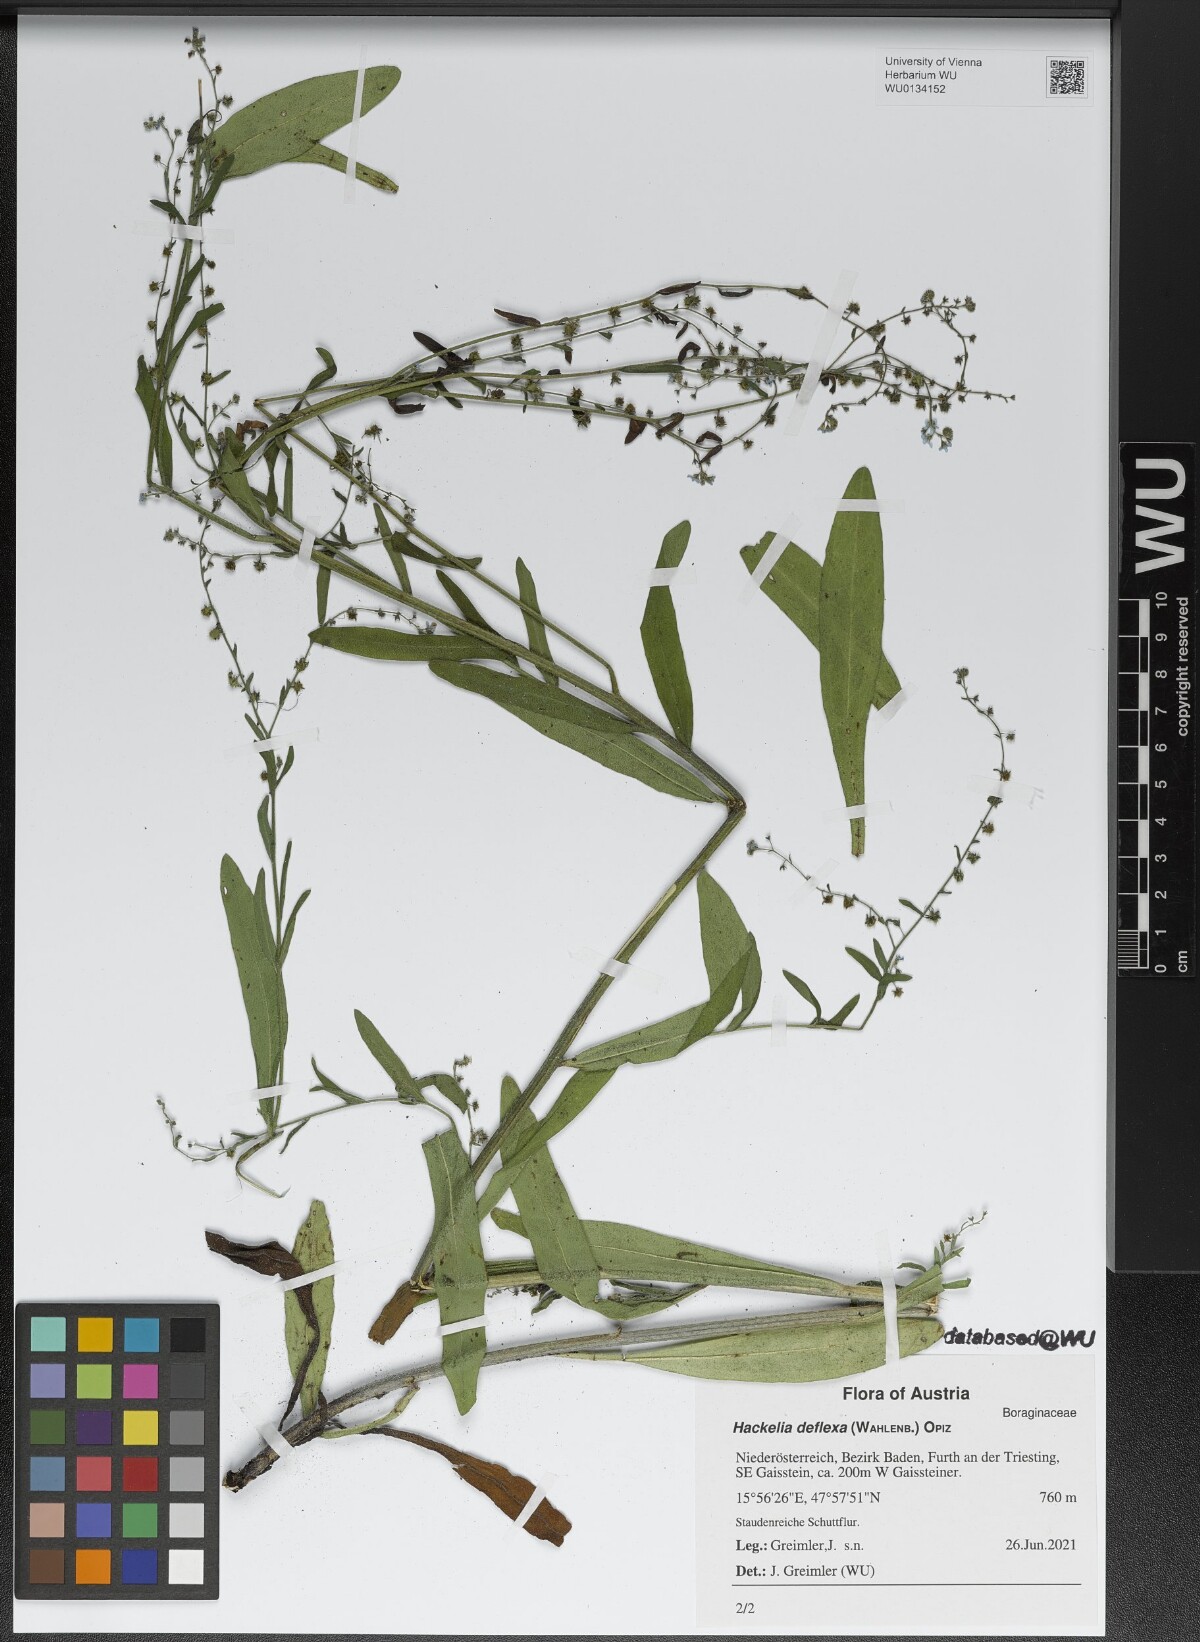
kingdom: Plantae
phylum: Tracheophyta
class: Magnoliopsida
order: Boraginales
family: Boraginaceae
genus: Hackelia
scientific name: Hackelia deflexa
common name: Nodding stickseed
